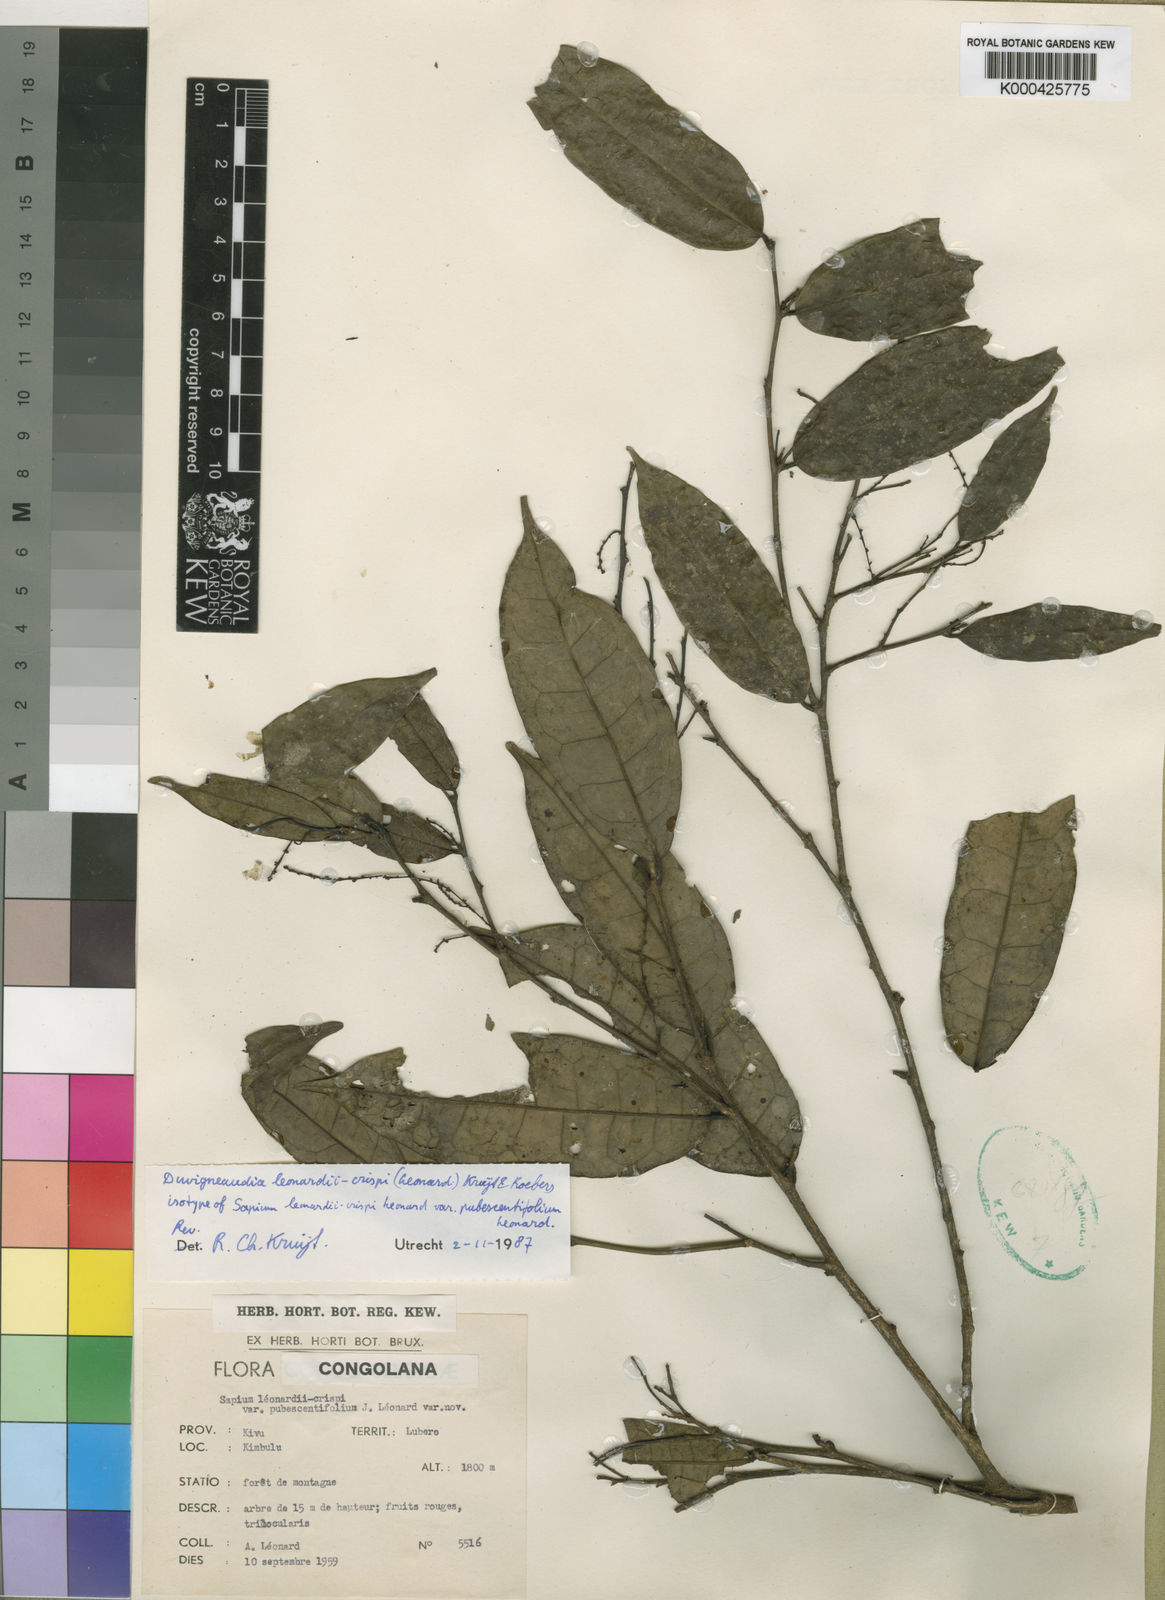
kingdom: Plantae
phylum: Tracheophyta
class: Magnoliopsida
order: Malpighiales
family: Euphorbiaceae
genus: Gymnanthes
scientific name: Gymnanthes
